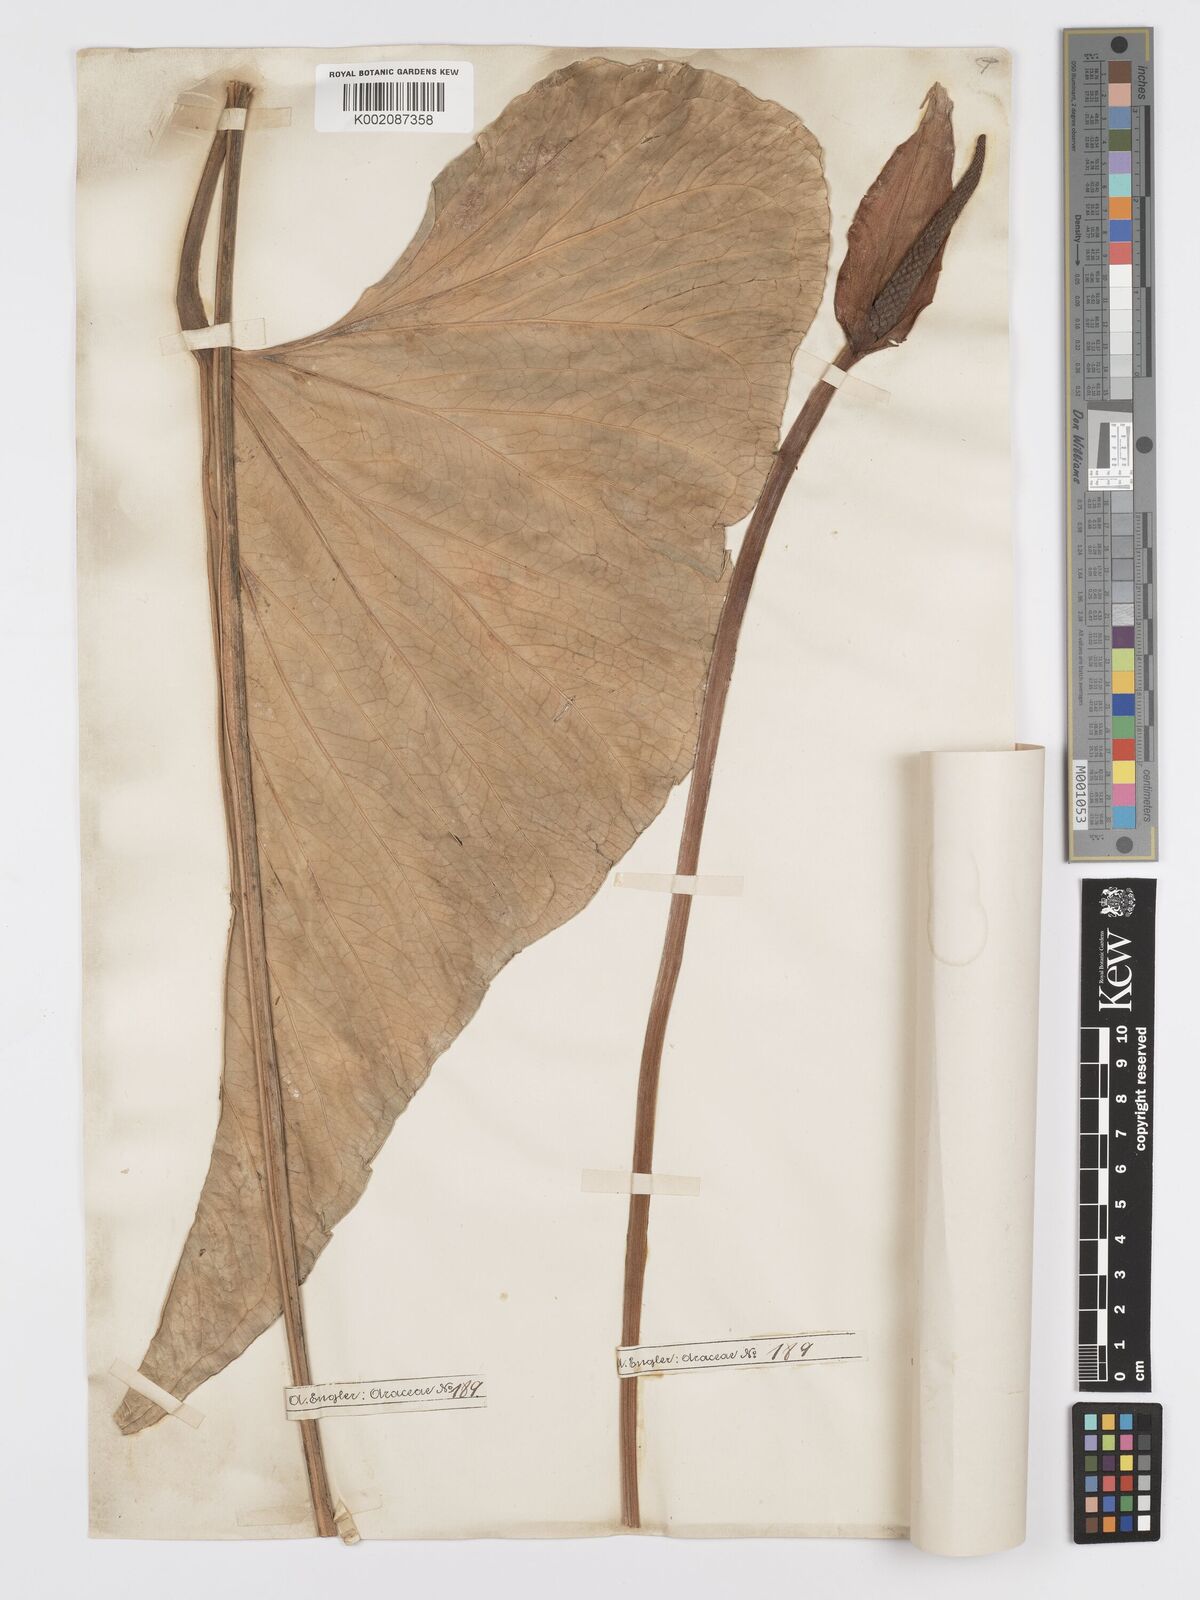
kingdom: Plantae
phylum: Tracheophyta
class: Liliopsida
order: Alismatales
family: Araceae
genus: Anthurium
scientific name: Anthurium andicola
